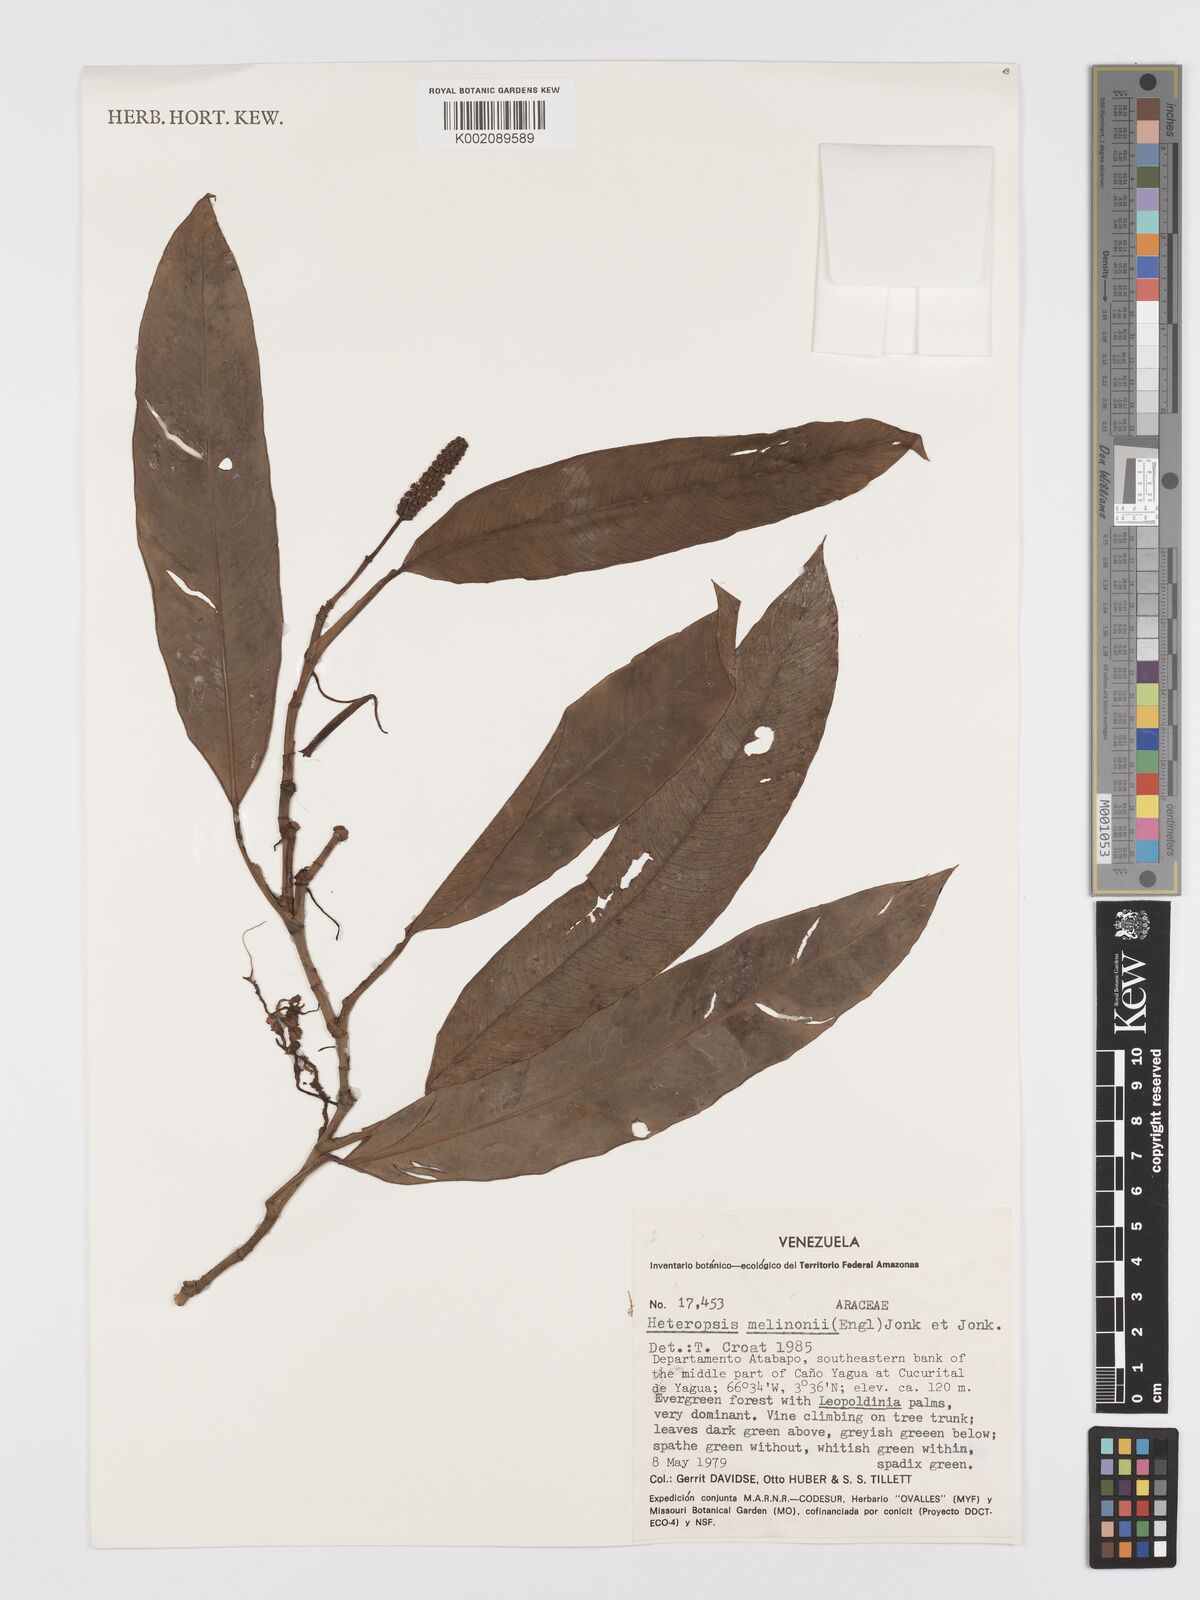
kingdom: Plantae
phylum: Tracheophyta
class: Liliopsida
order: Alismatales
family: Araceae
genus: Heteropsis
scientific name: Heteropsis steyermarkii
